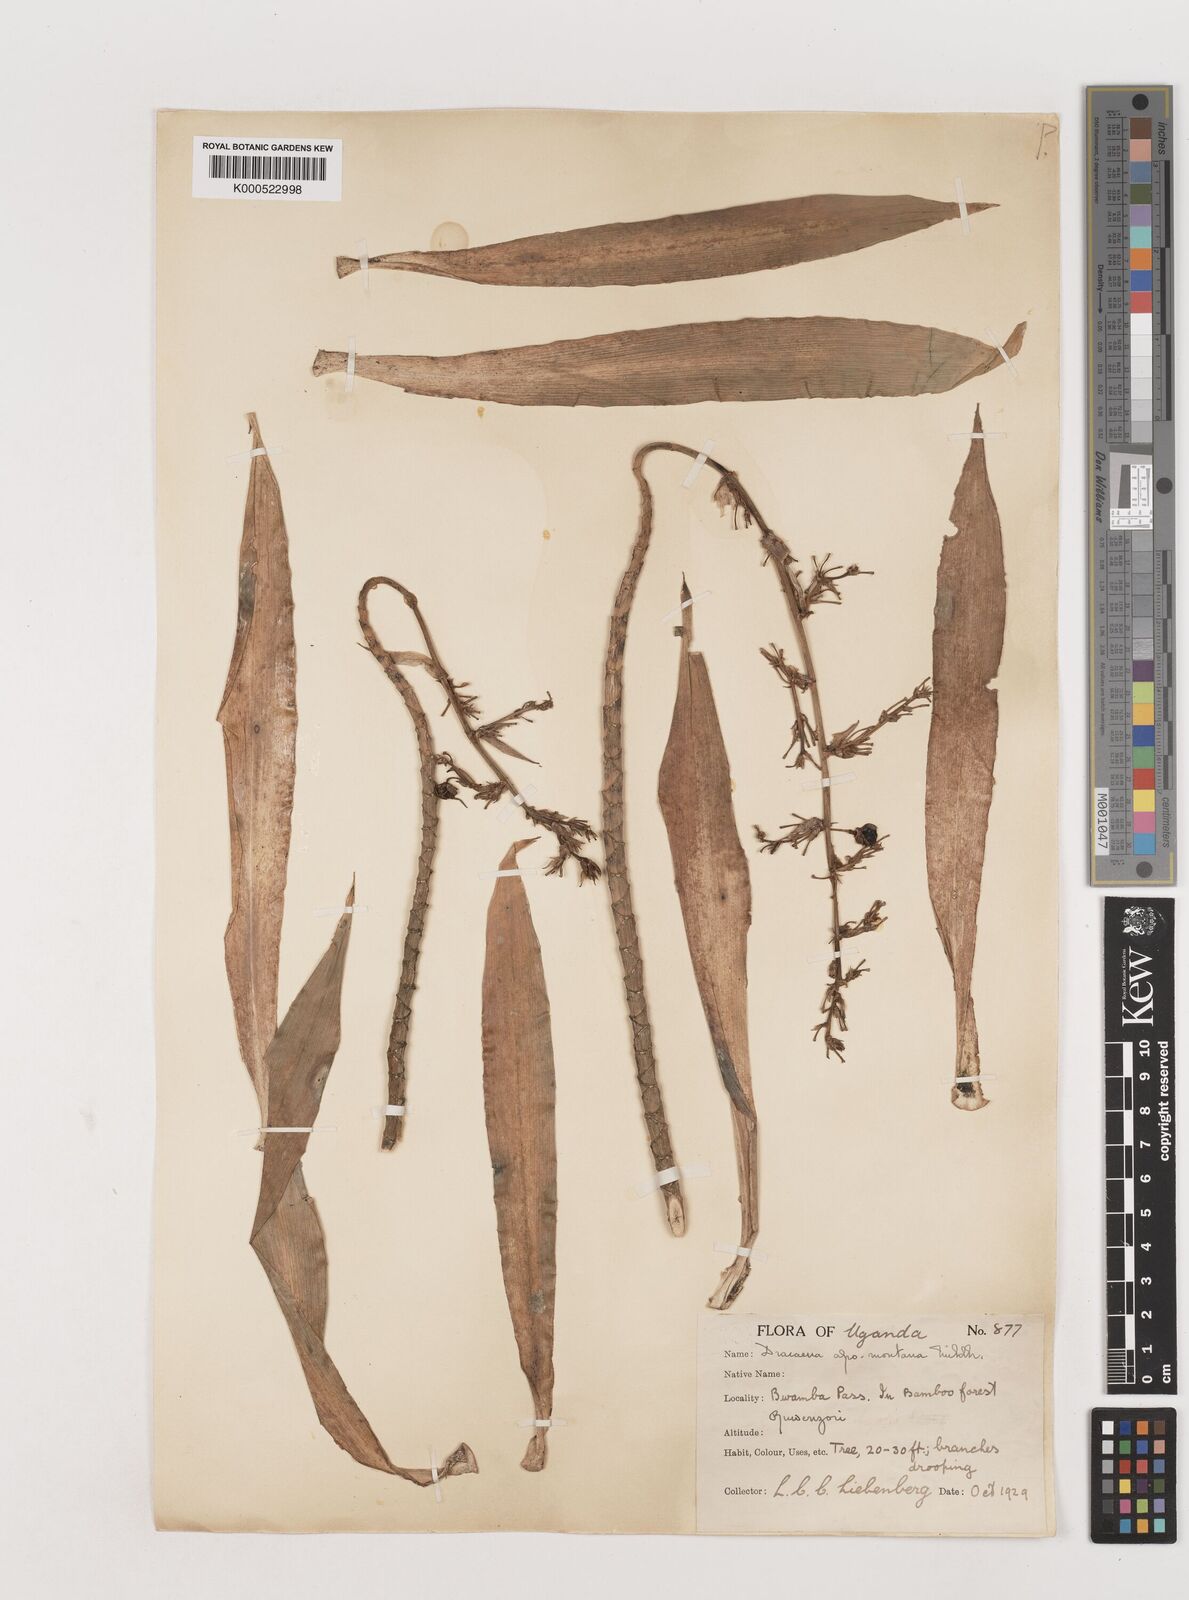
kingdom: Plantae
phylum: Tracheophyta
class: Liliopsida
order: Asparagales
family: Asparagaceae
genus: Dracaena
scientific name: Dracaena afromontana
